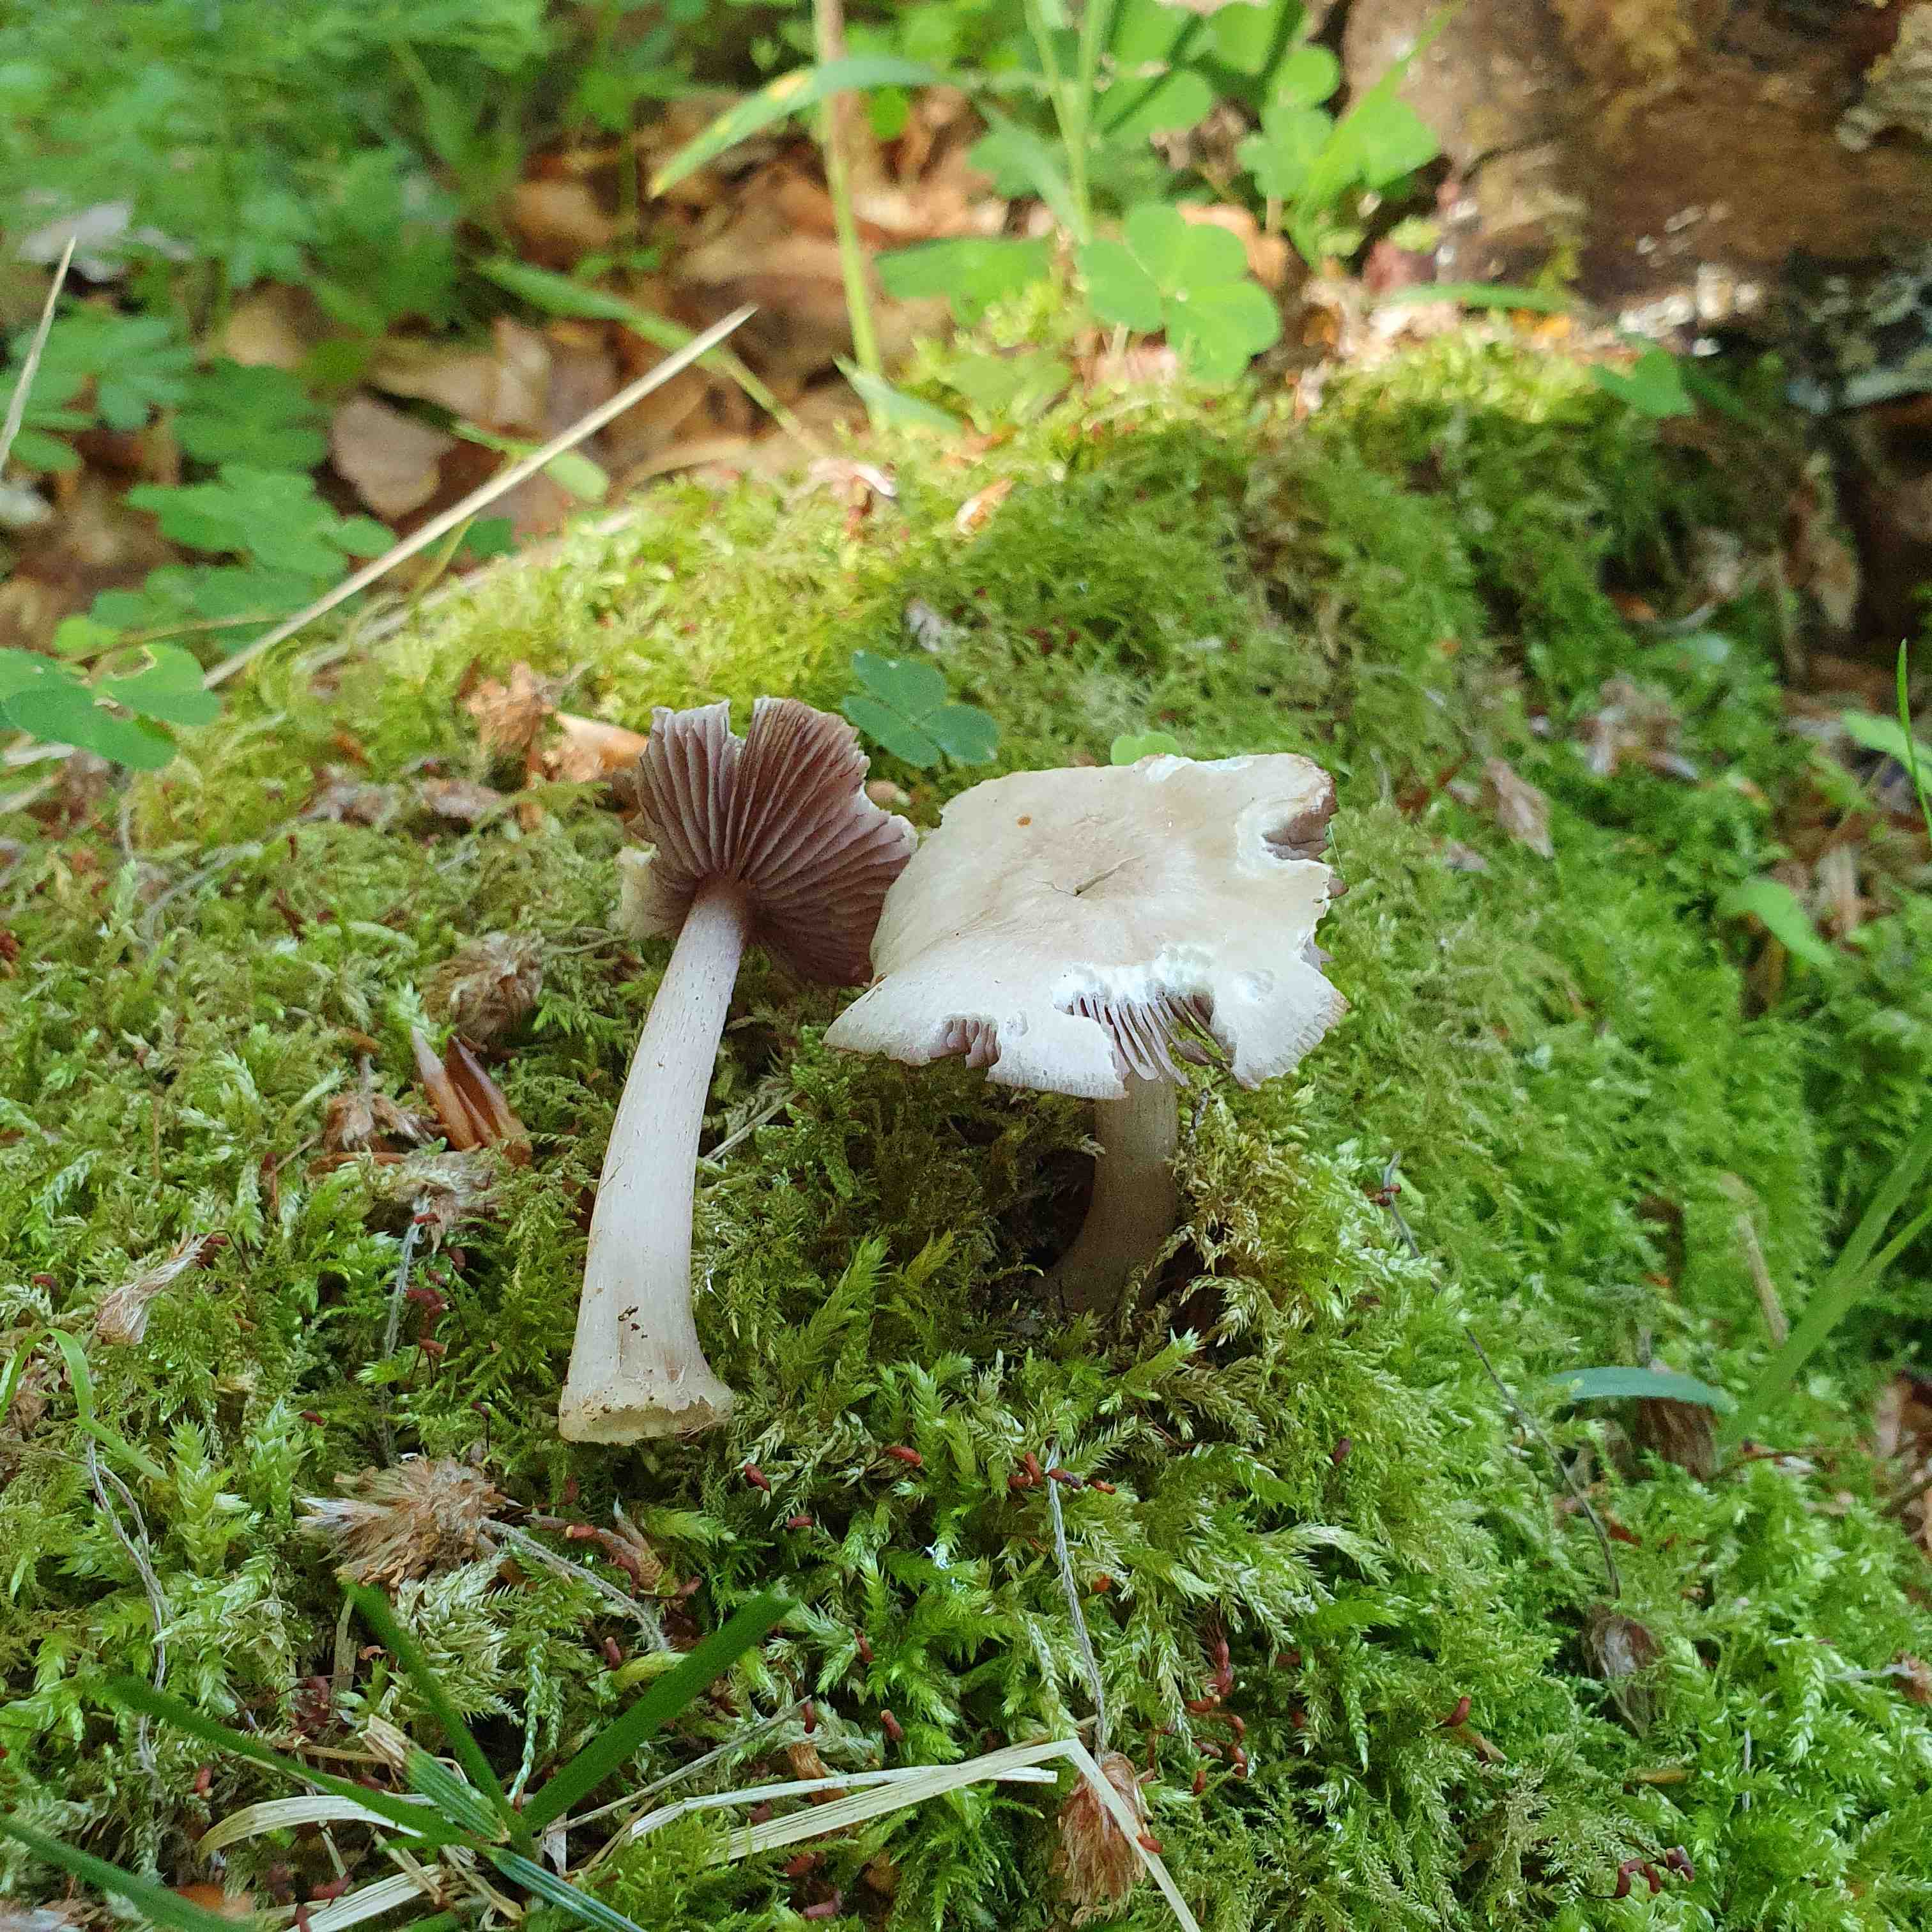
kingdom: Fungi
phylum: Basidiomycota
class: Agaricomycetes
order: Agaricales
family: Mycenaceae
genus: Mycena
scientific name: Mycena pelianthina
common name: mørkbladet huesvamp
